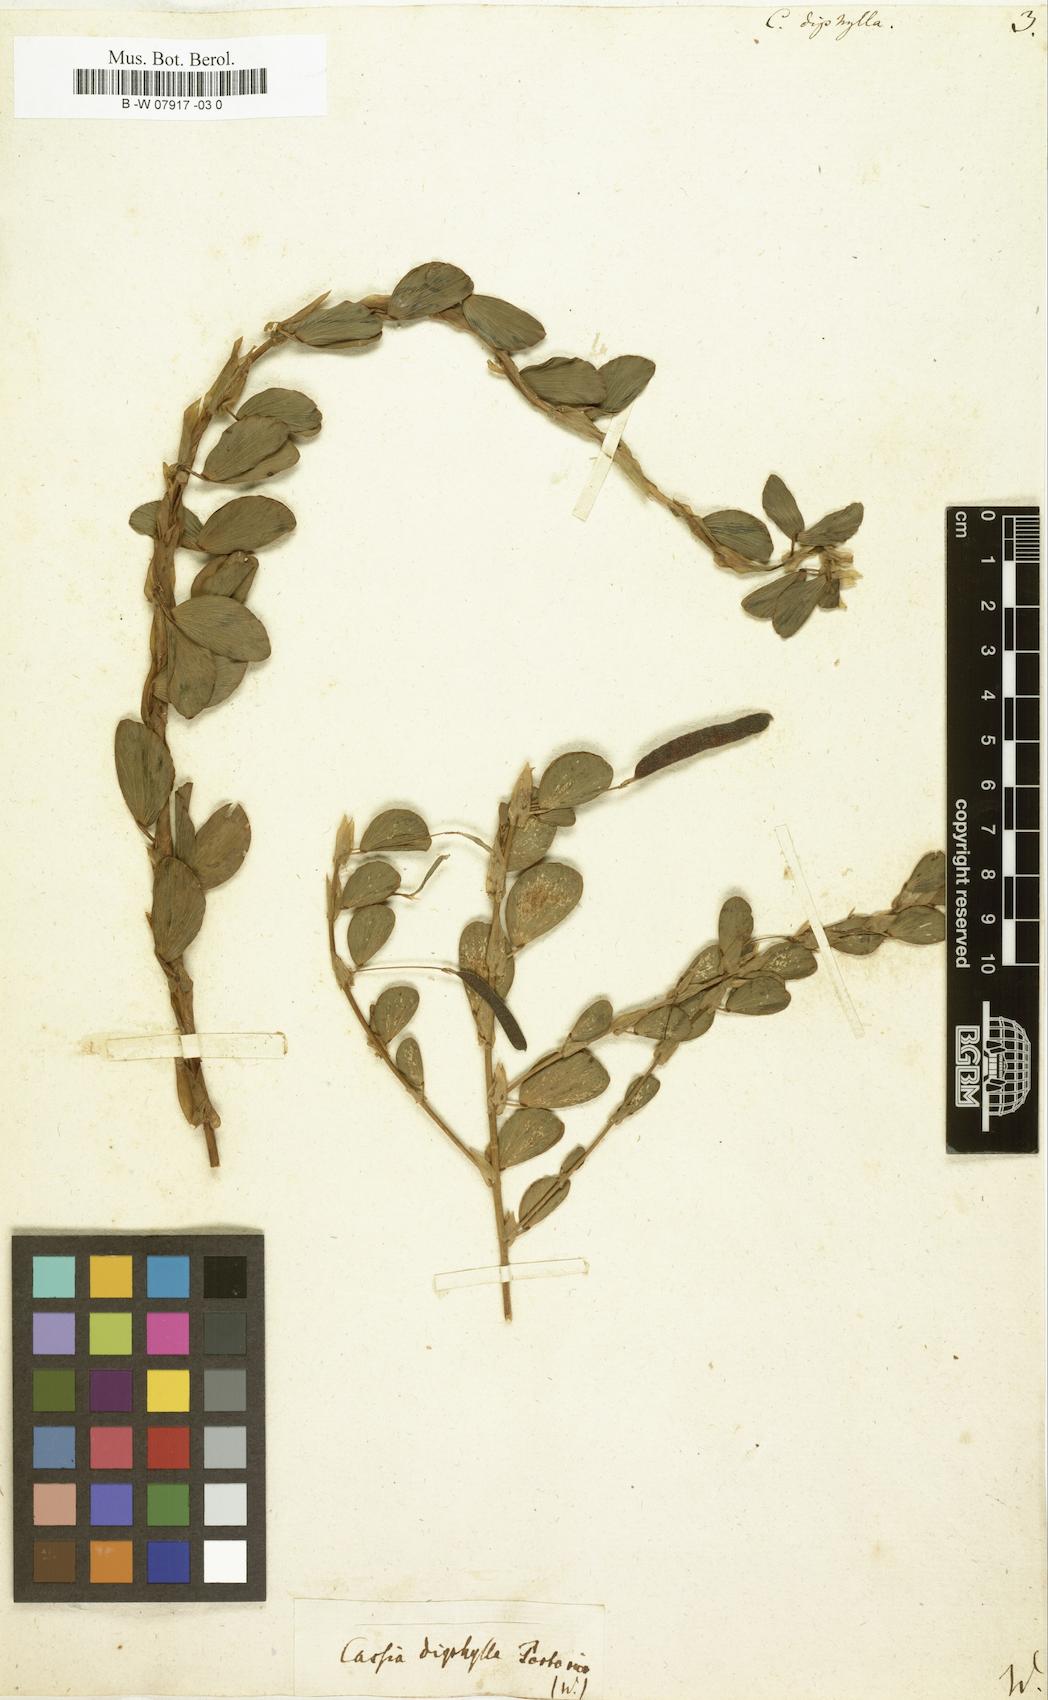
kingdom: Plantae
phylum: Tracheophyta
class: Magnoliopsida
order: Fabales
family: Fabaceae
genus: Chamaecrista
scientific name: Chamaecrista diphylla
